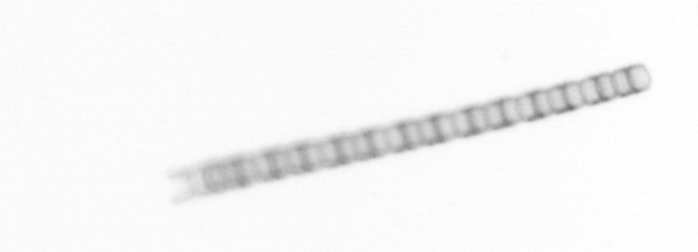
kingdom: Chromista
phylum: Ochrophyta
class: Bacillariophyceae
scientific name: Bacillariophyceae
